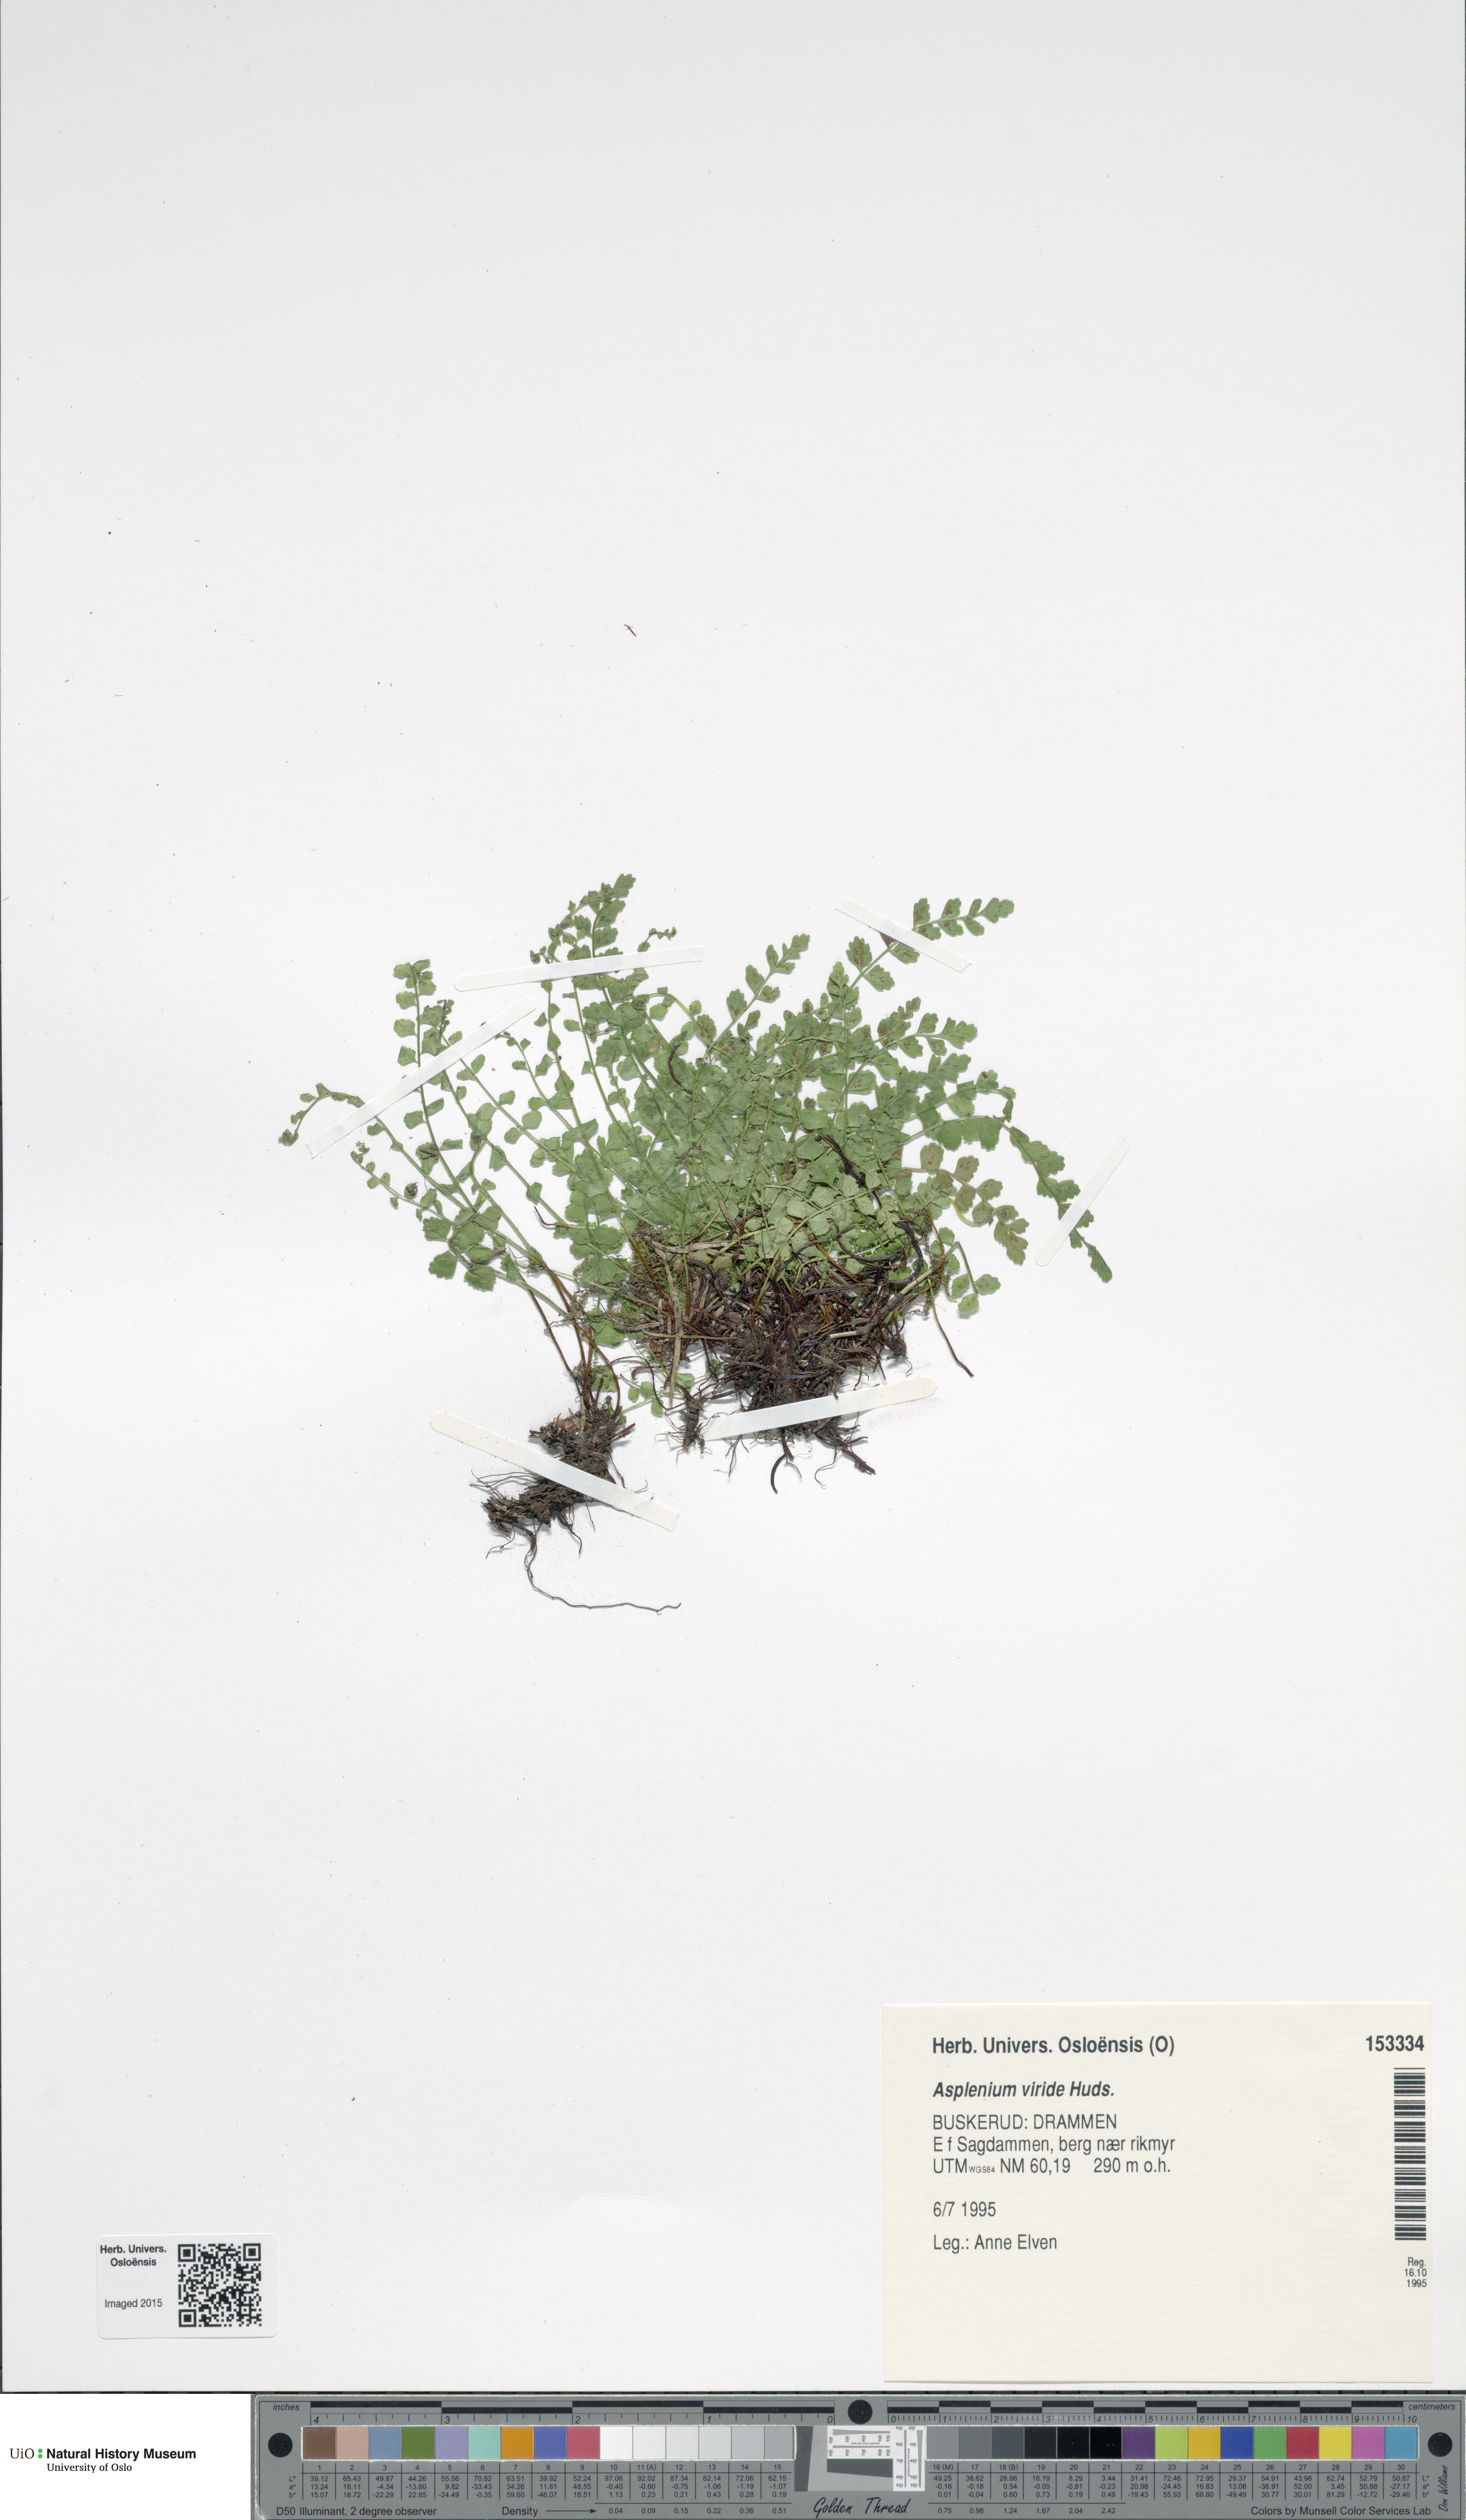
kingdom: Plantae
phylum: Tracheophyta
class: Polypodiopsida
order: Polypodiales
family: Aspleniaceae
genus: Asplenium
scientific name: Asplenium viride
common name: Green spleenwort
